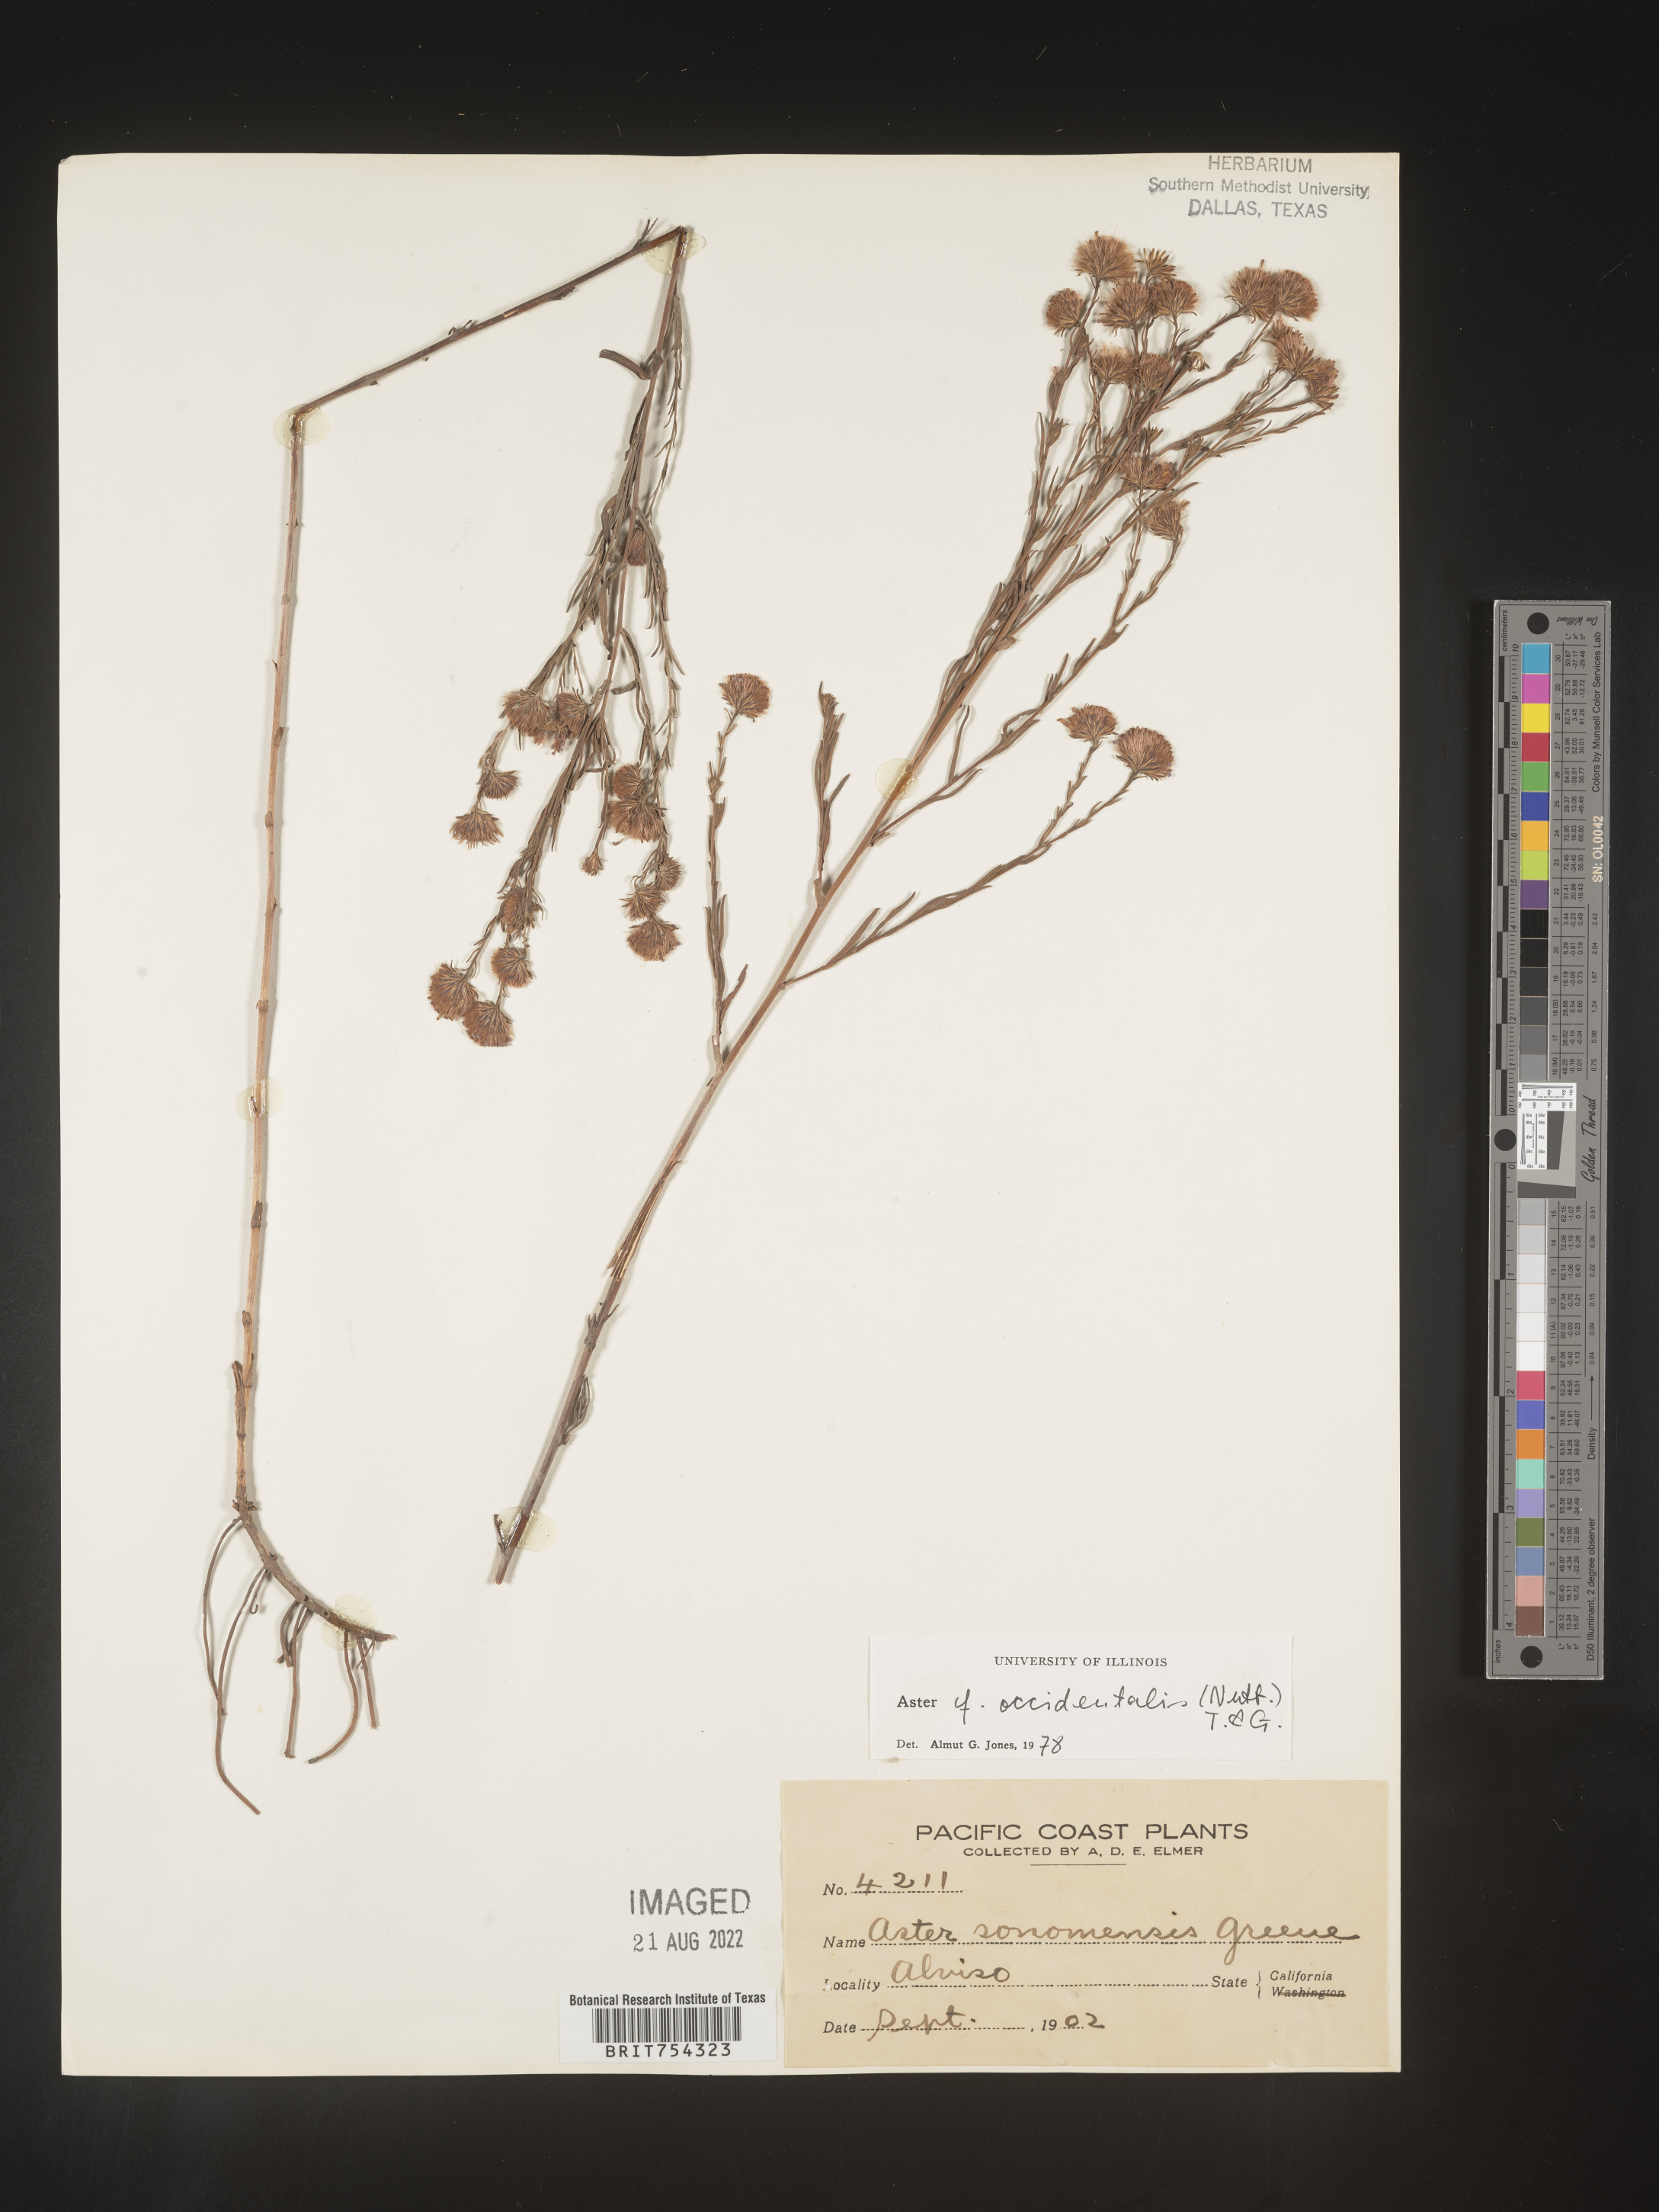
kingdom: Plantae
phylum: Tracheophyta
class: Magnoliopsida
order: Asterales
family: Asteraceae
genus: Symphyotrichum
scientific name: Symphyotrichum spathulatum
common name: Western mountain aster
